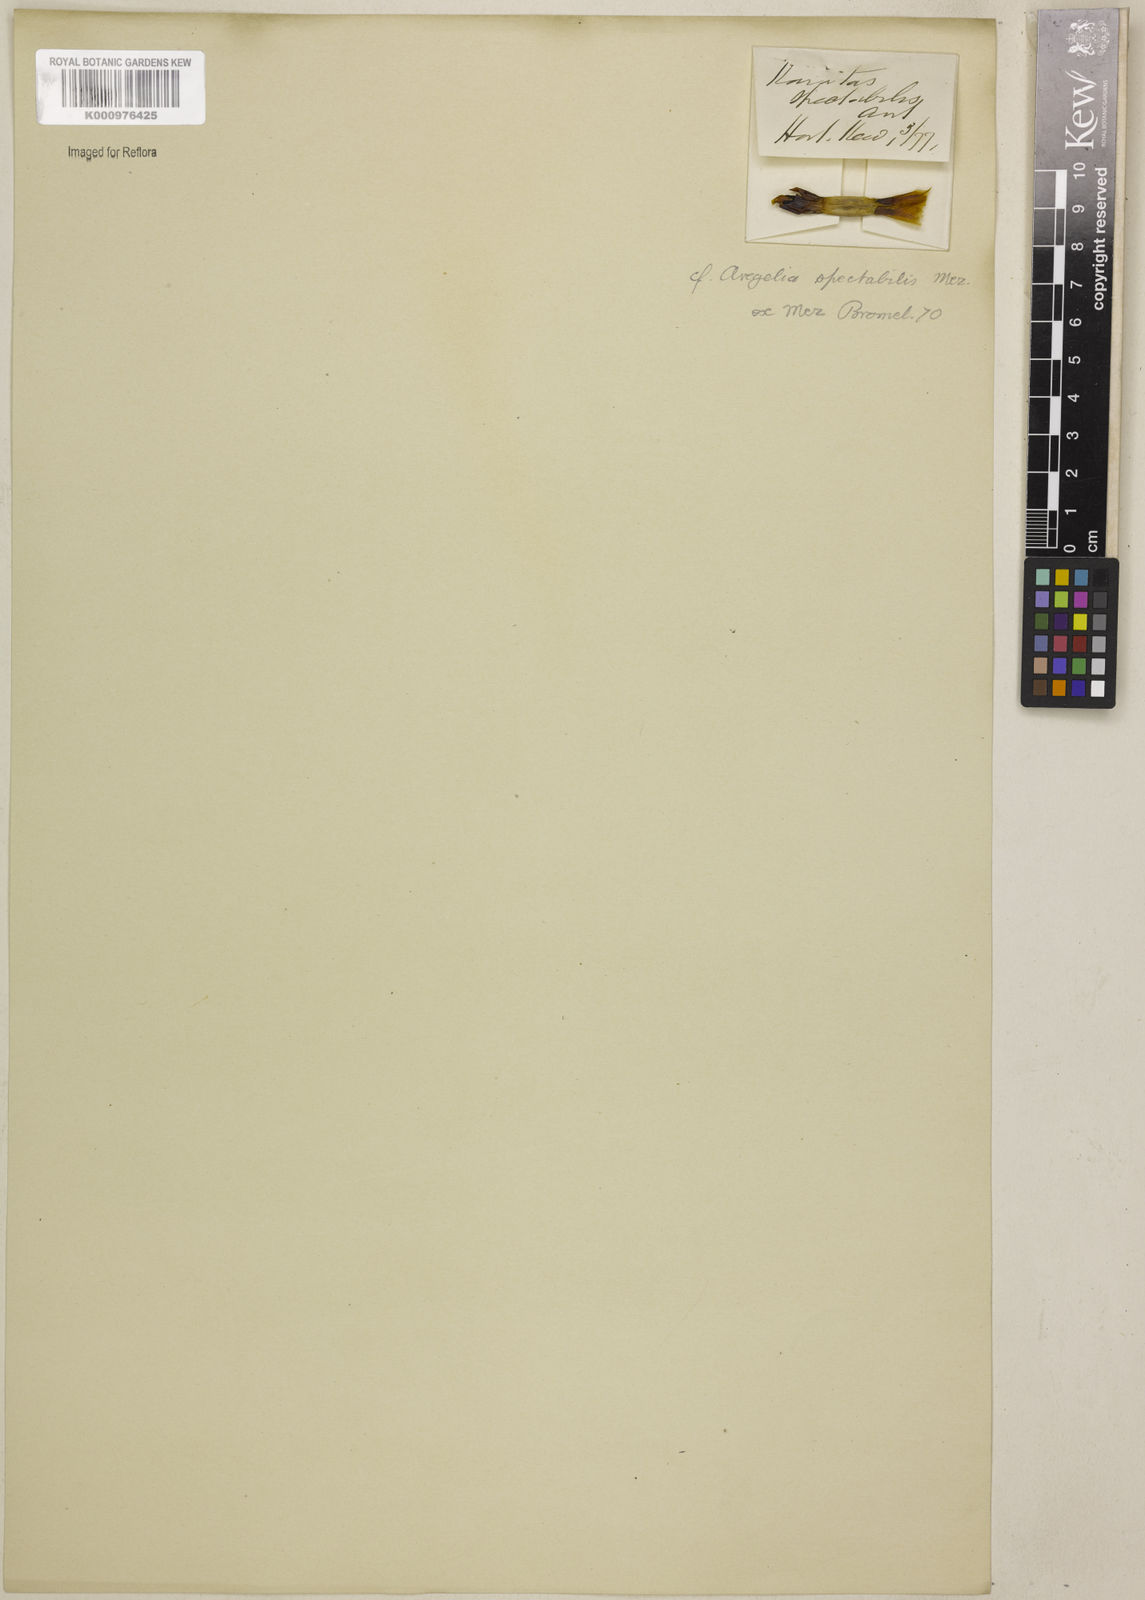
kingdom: Plantae
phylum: Tracheophyta
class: Liliopsida
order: Poales
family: Bromeliaceae
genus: Neoregelia
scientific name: Neoregelia spectabilis
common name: Painted-fingernail
